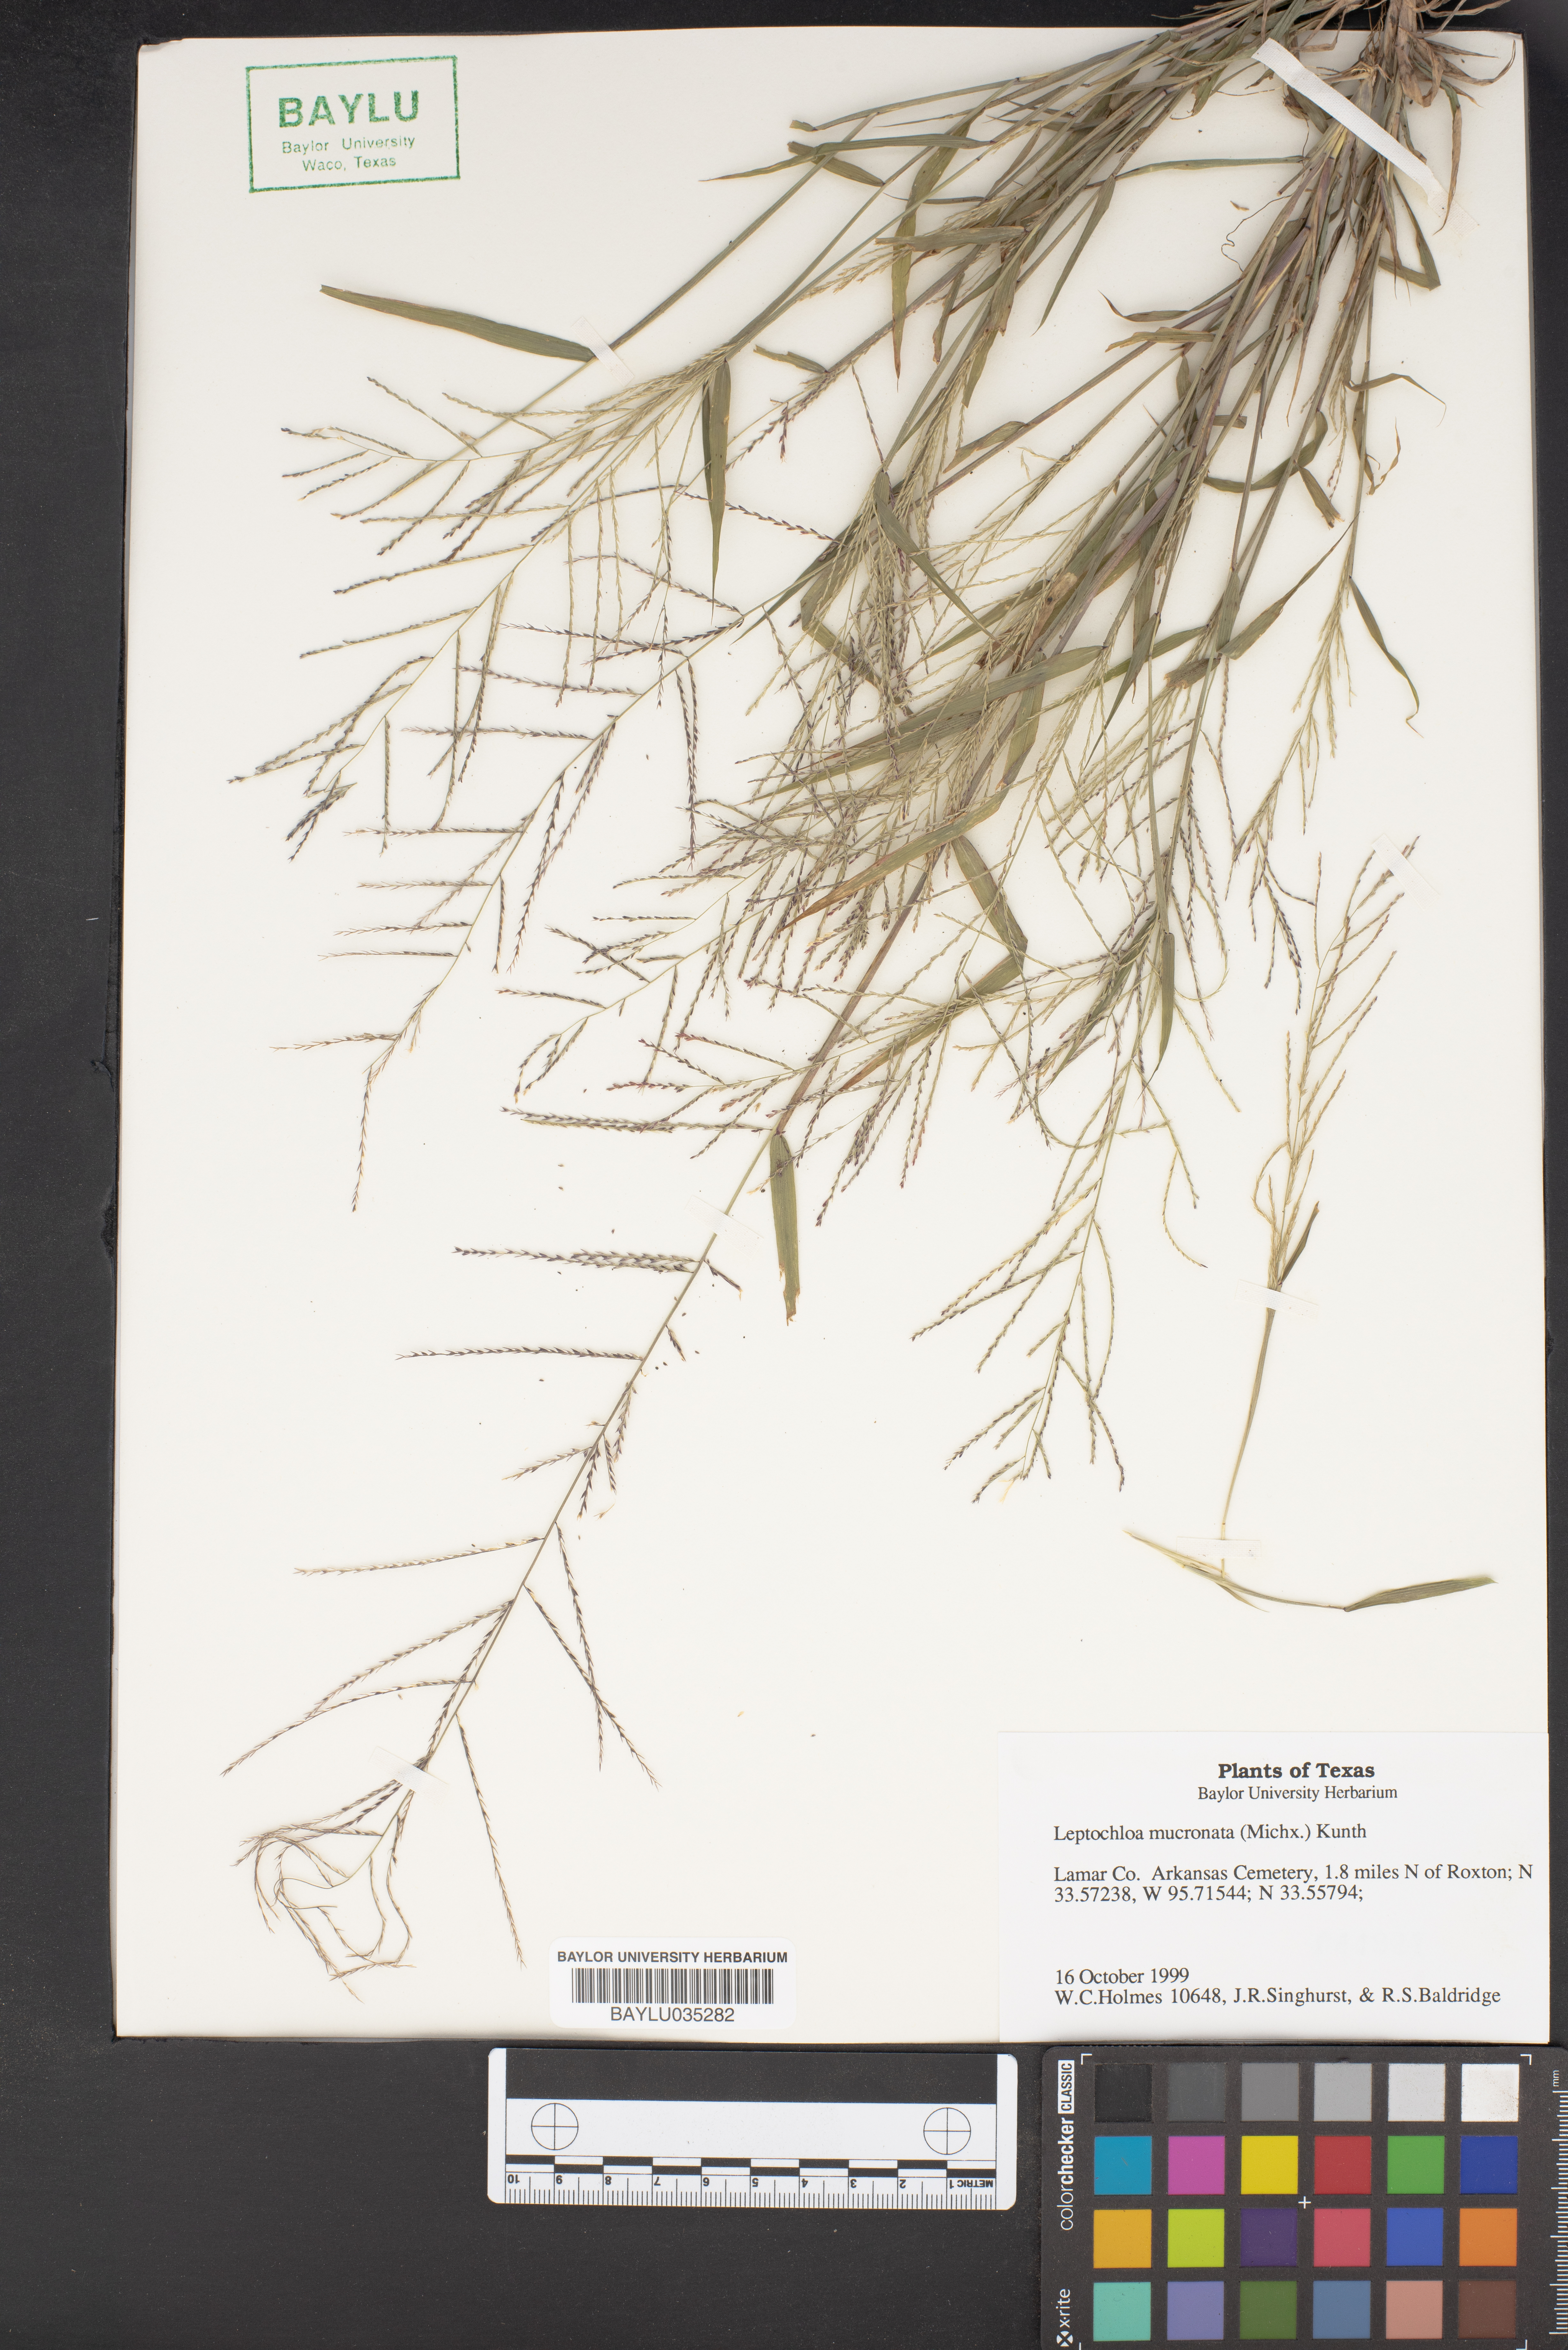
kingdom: Plantae
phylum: Tracheophyta
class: Liliopsida
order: Poales
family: Poaceae
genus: Leptochloa
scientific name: Leptochloa mucronata
